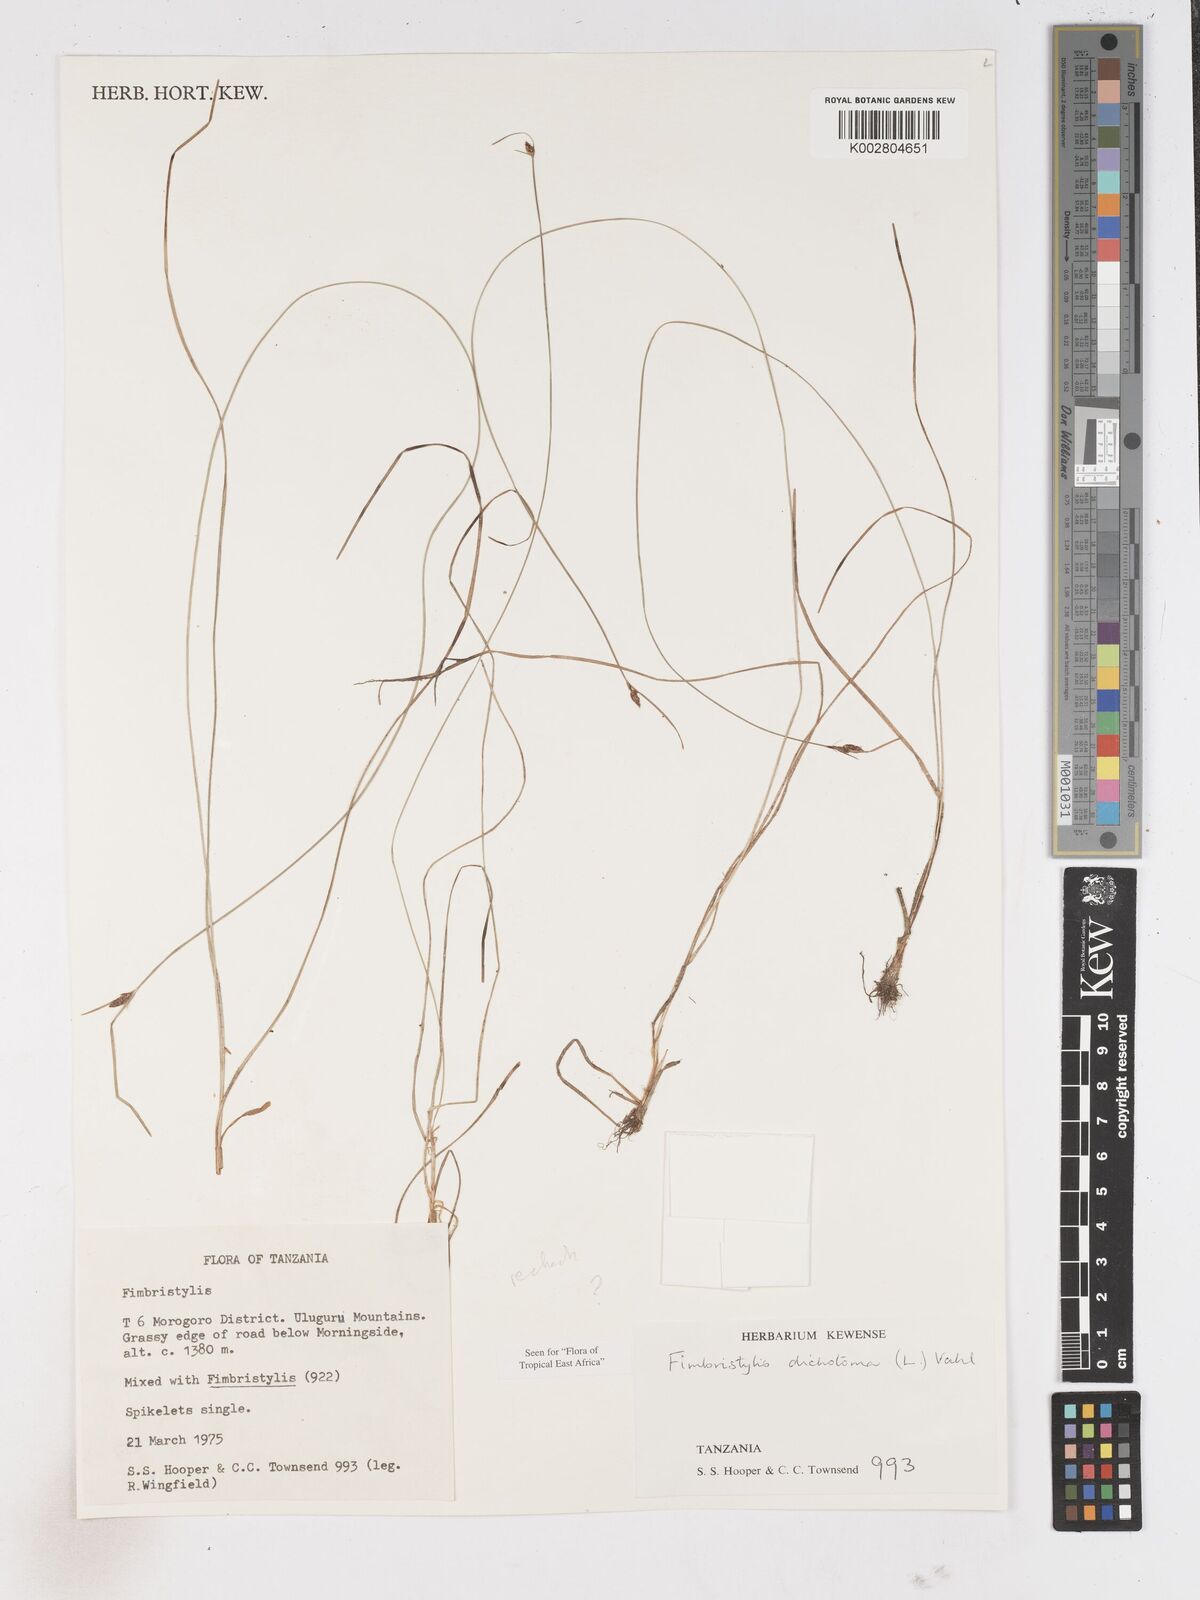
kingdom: Plantae
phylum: Tracheophyta
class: Liliopsida
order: Poales
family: Cyperaceae
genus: Fimbristylis
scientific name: Fimbristylis dichotoma
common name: Forked fimbry
